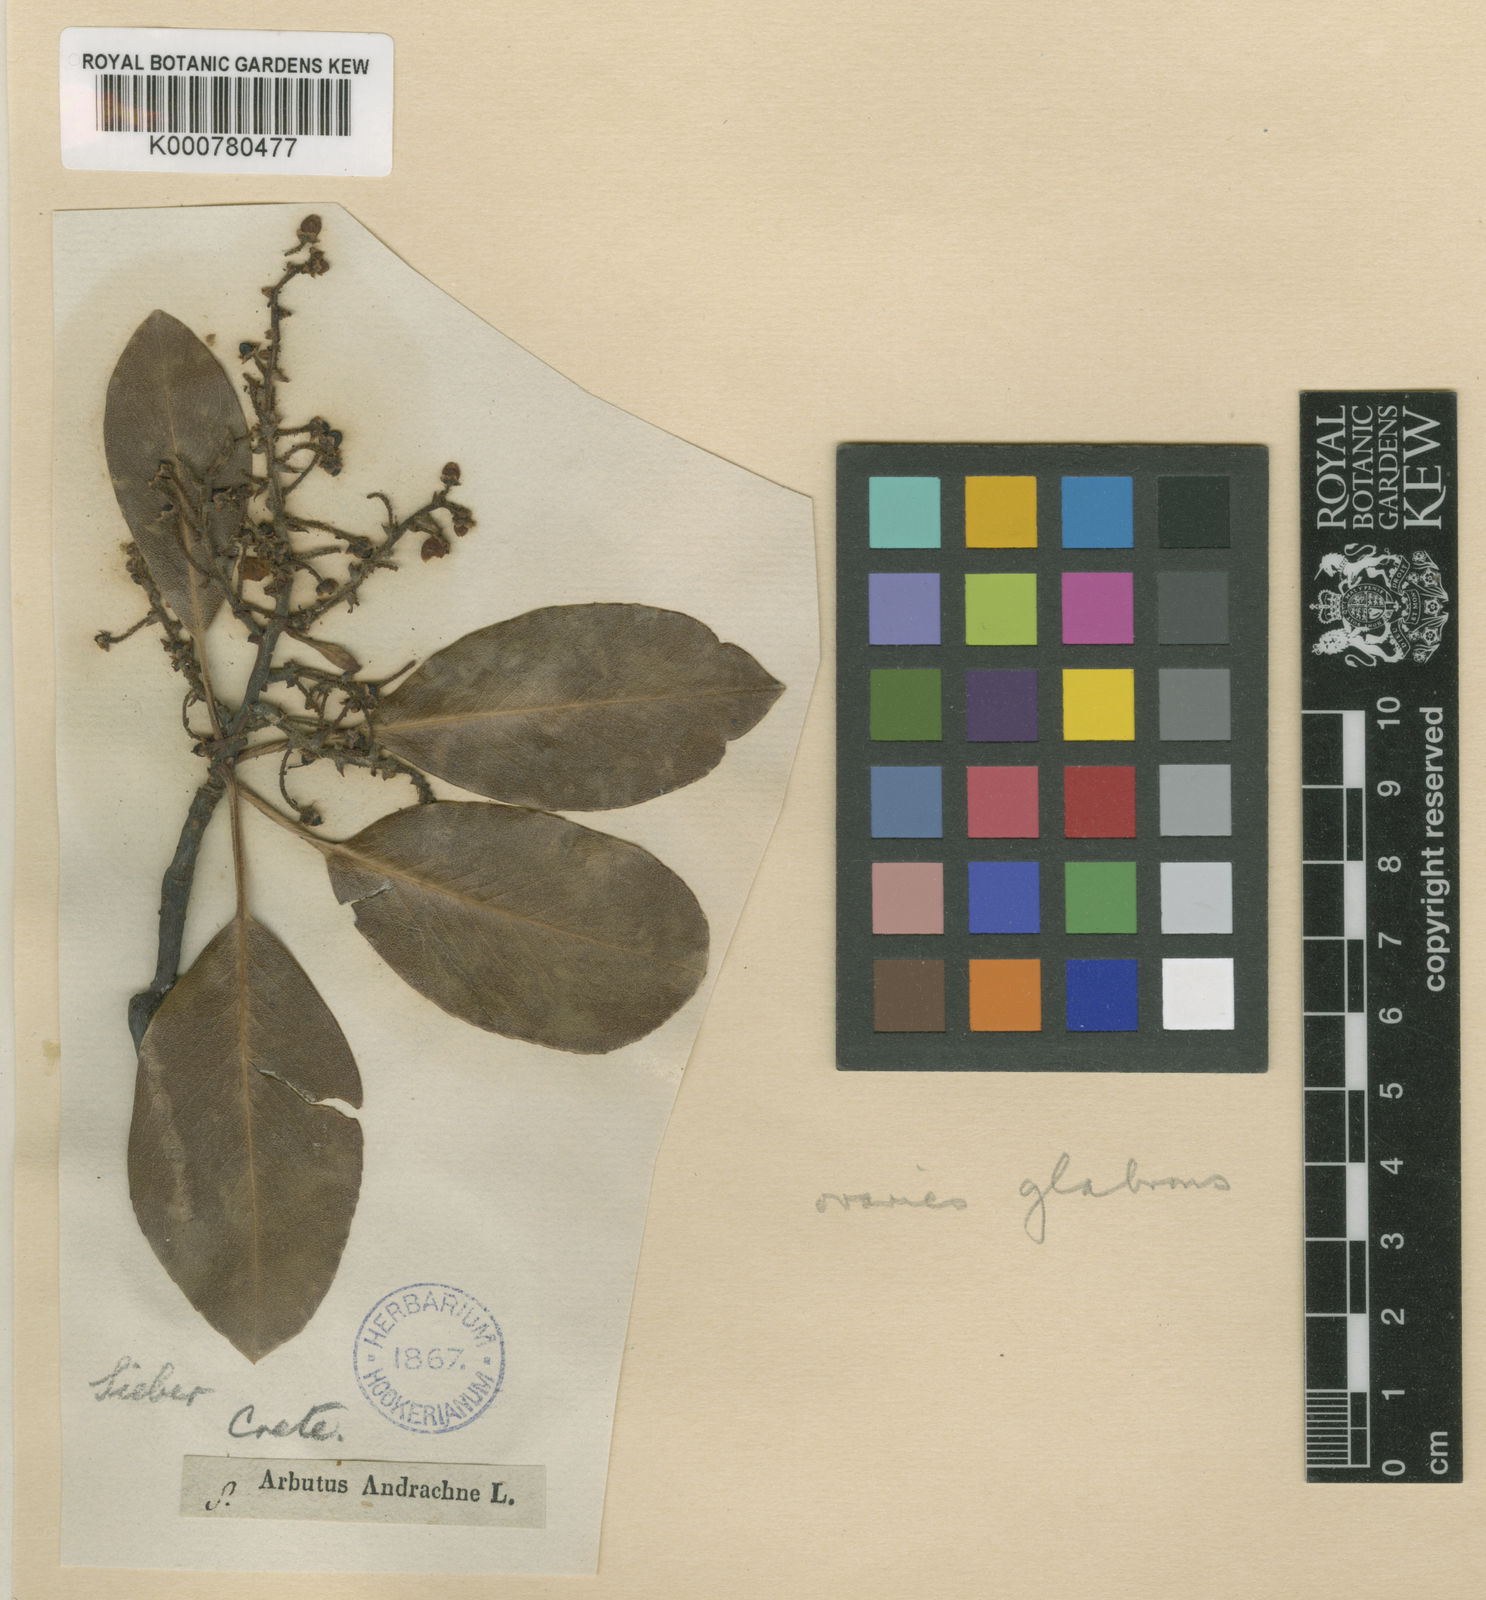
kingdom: Plantae
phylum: Tracheophyta
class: Magnoliopsida
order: Ericales
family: Ericaceae
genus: Arbutus
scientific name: Arbutus unedo
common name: Strawberry-tree
